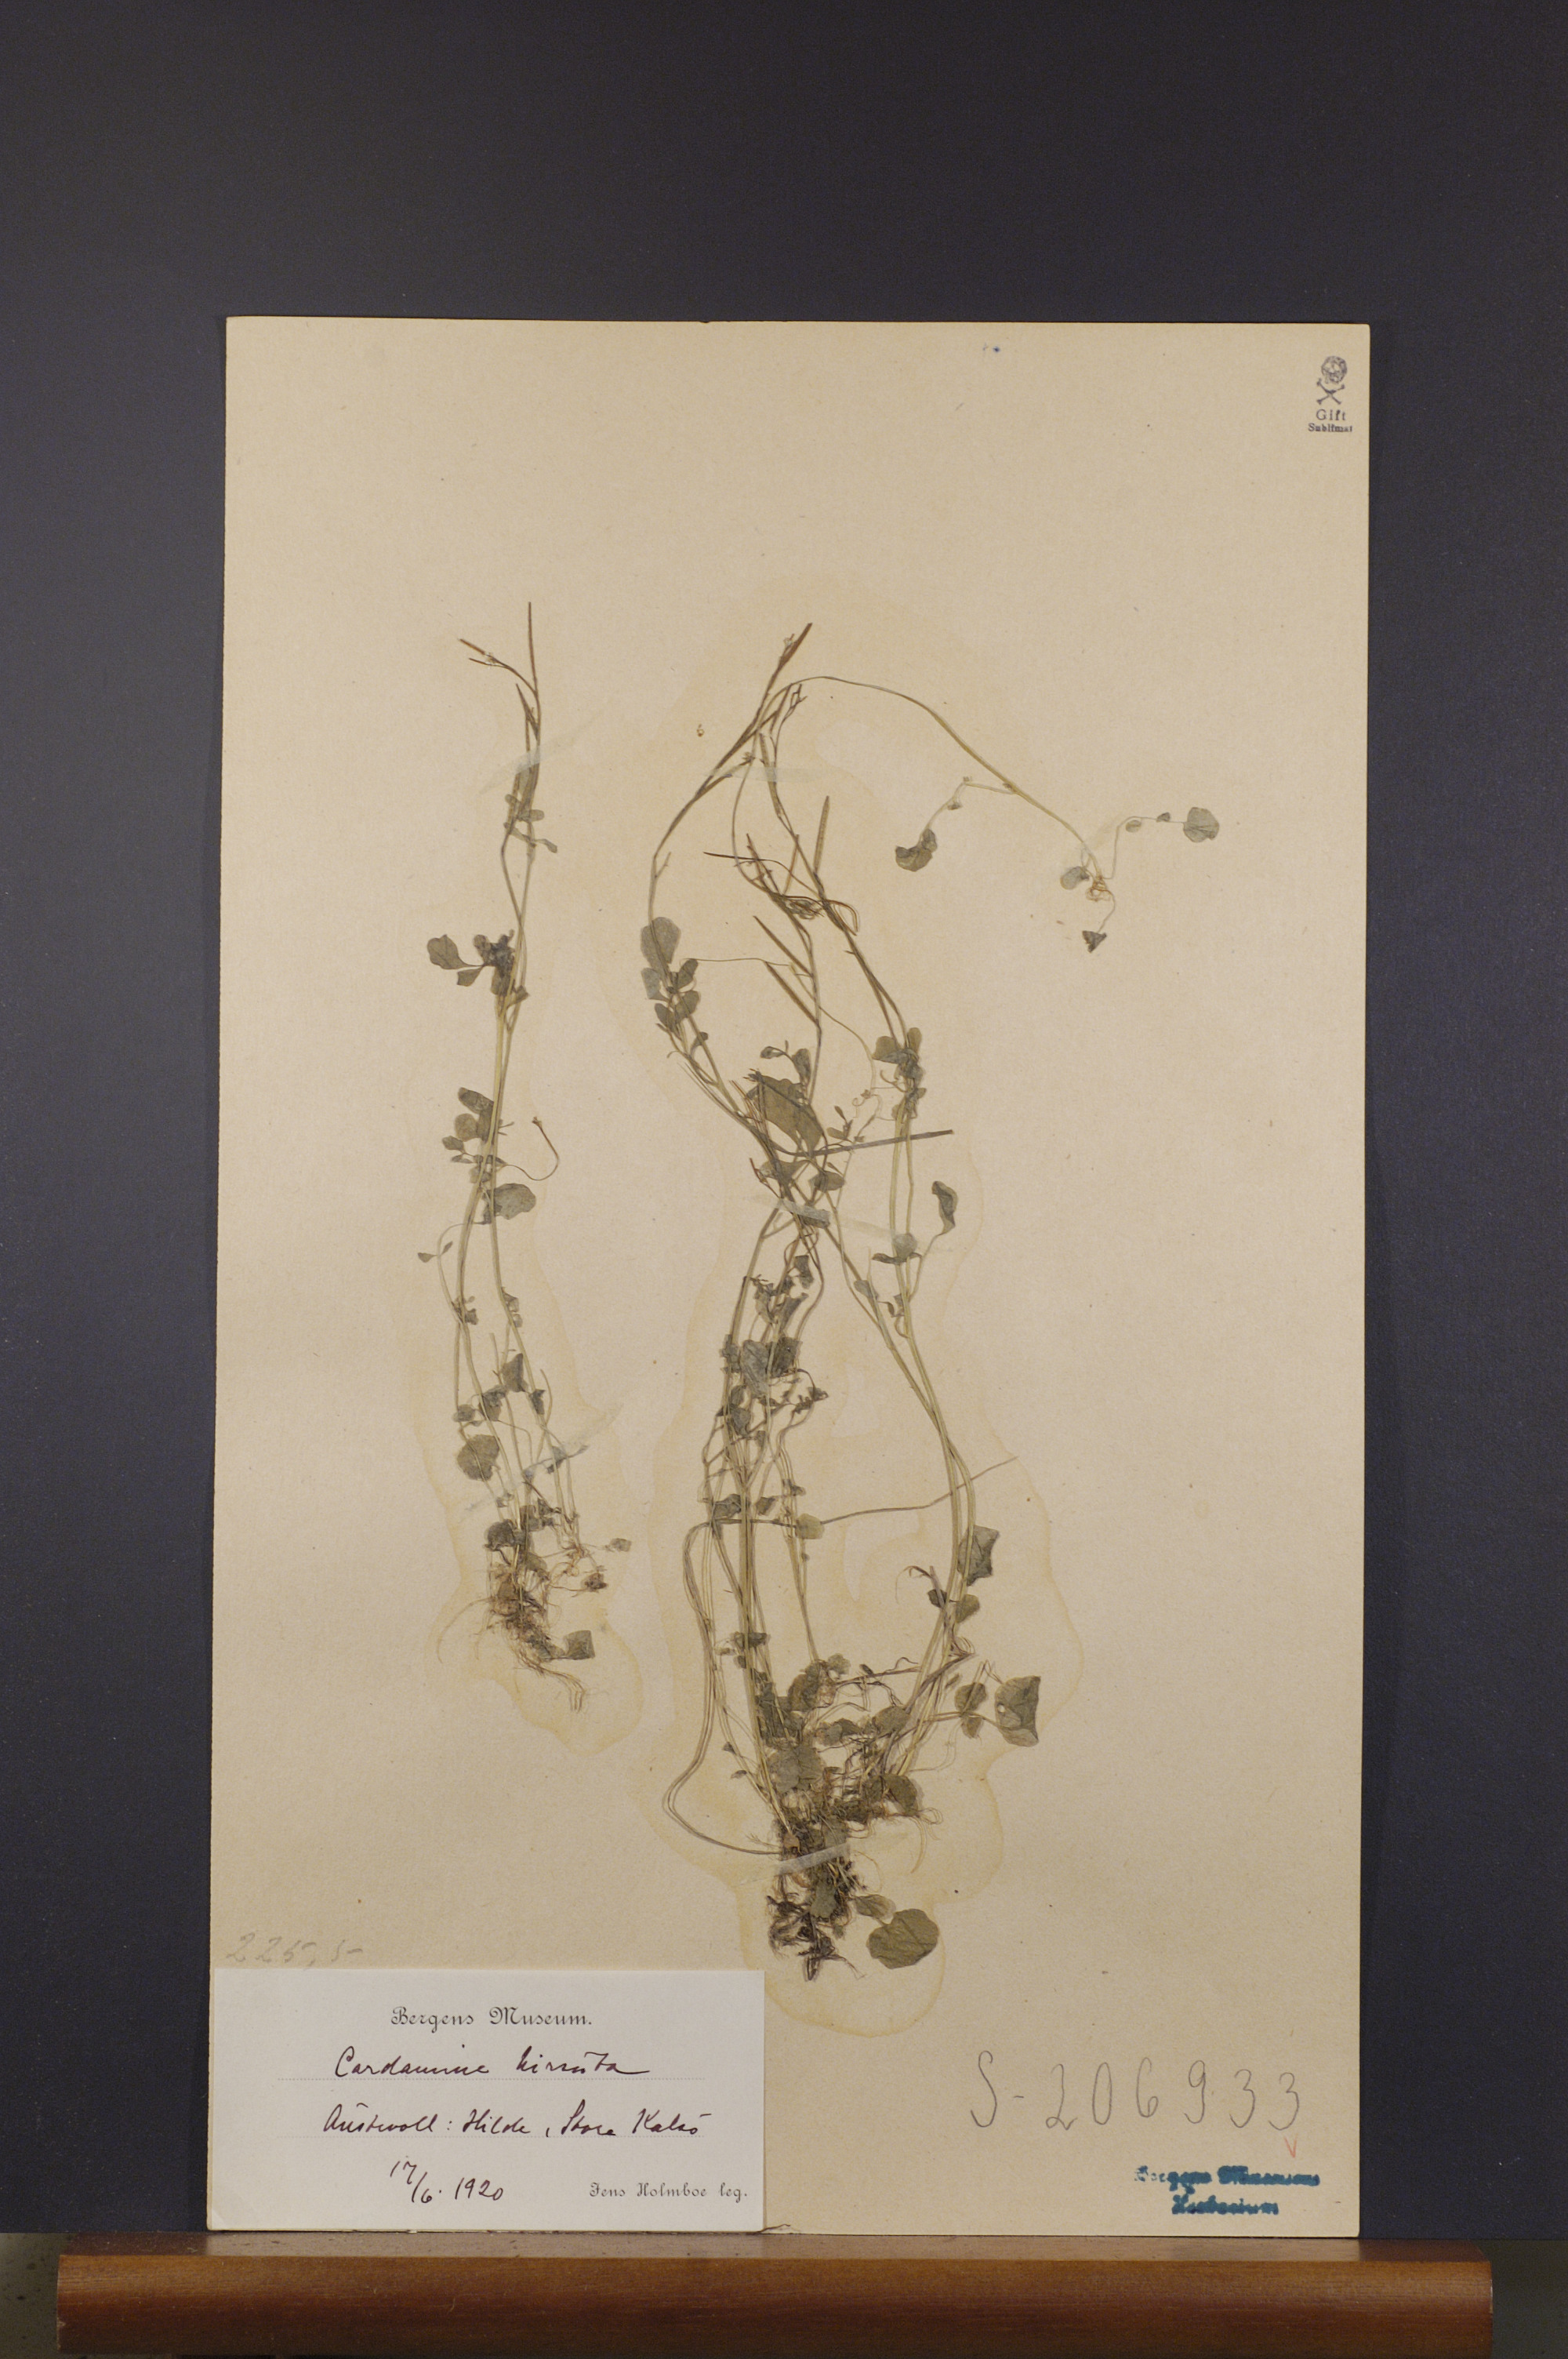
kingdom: Plantae
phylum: Tracheophyta
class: Magnoliopsida
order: Brassicales
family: Brassicaceae
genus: Cardamine
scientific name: Cardamine hirsuta
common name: Hairy bittercress
